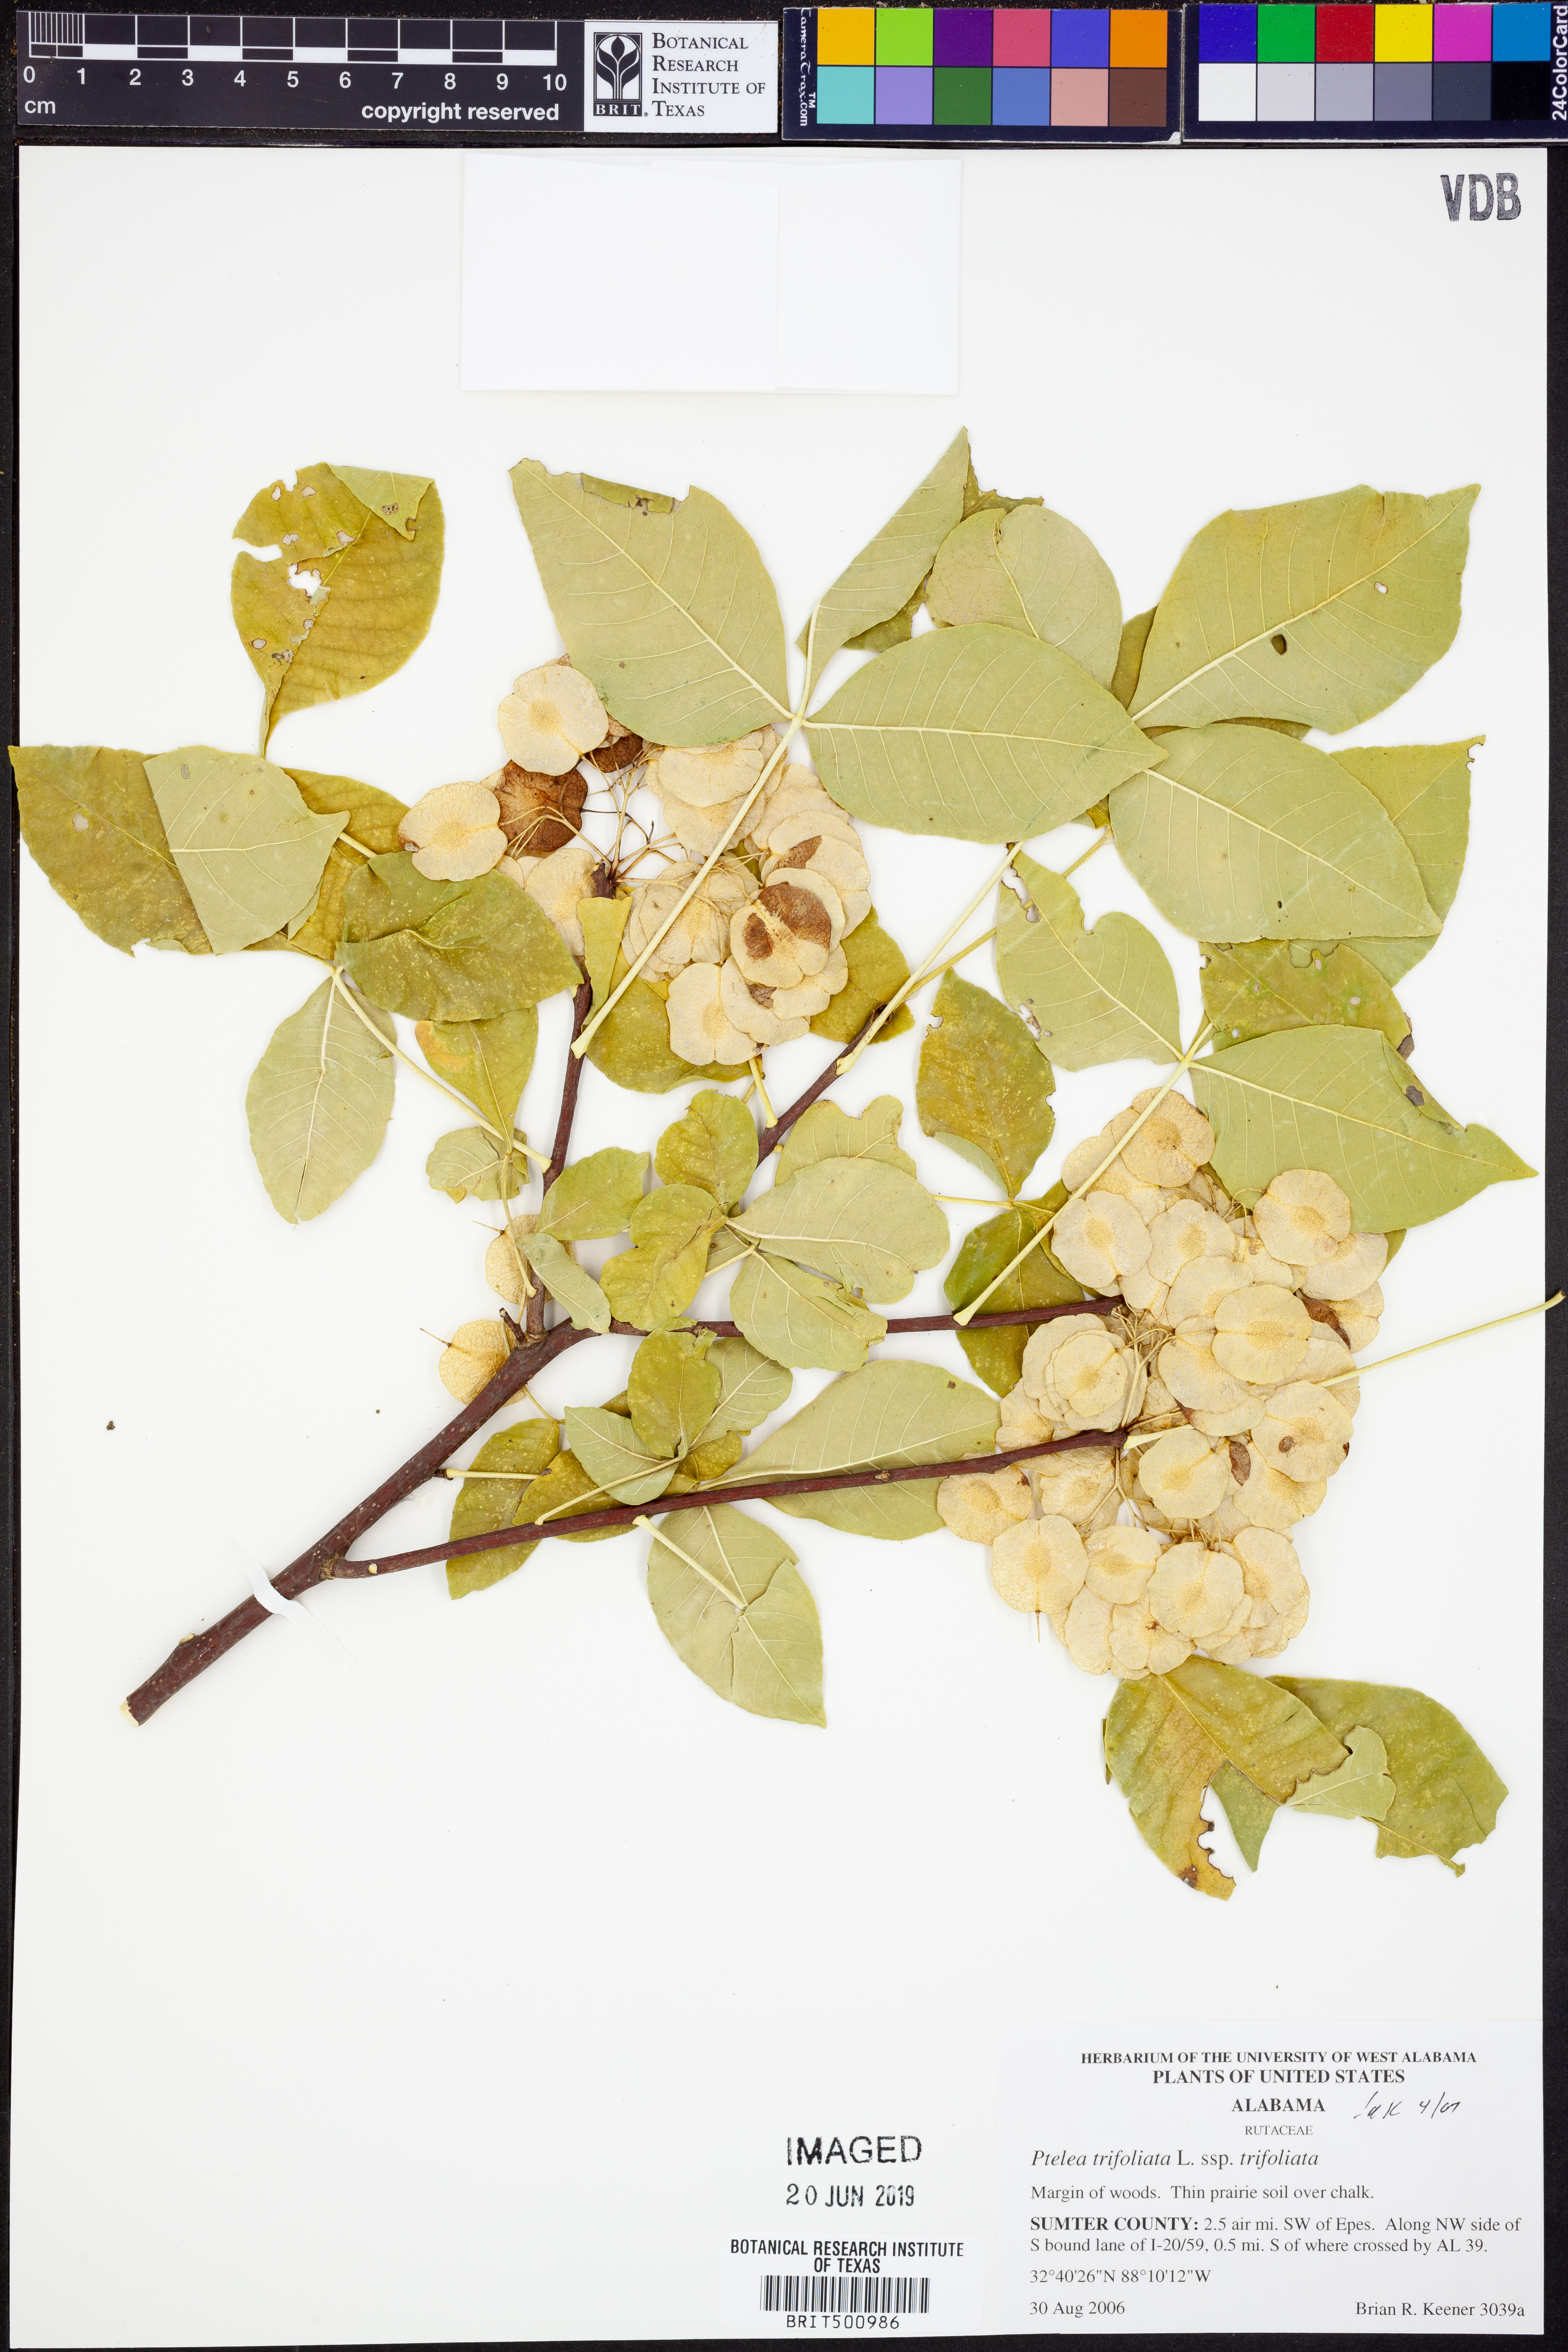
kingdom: Plantae
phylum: Tracheophyta
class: Magnoliopsida
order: Sapindales
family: Rutaceae
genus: Ptelea
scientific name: Ptelea trifoliata
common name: Common hop-tree
